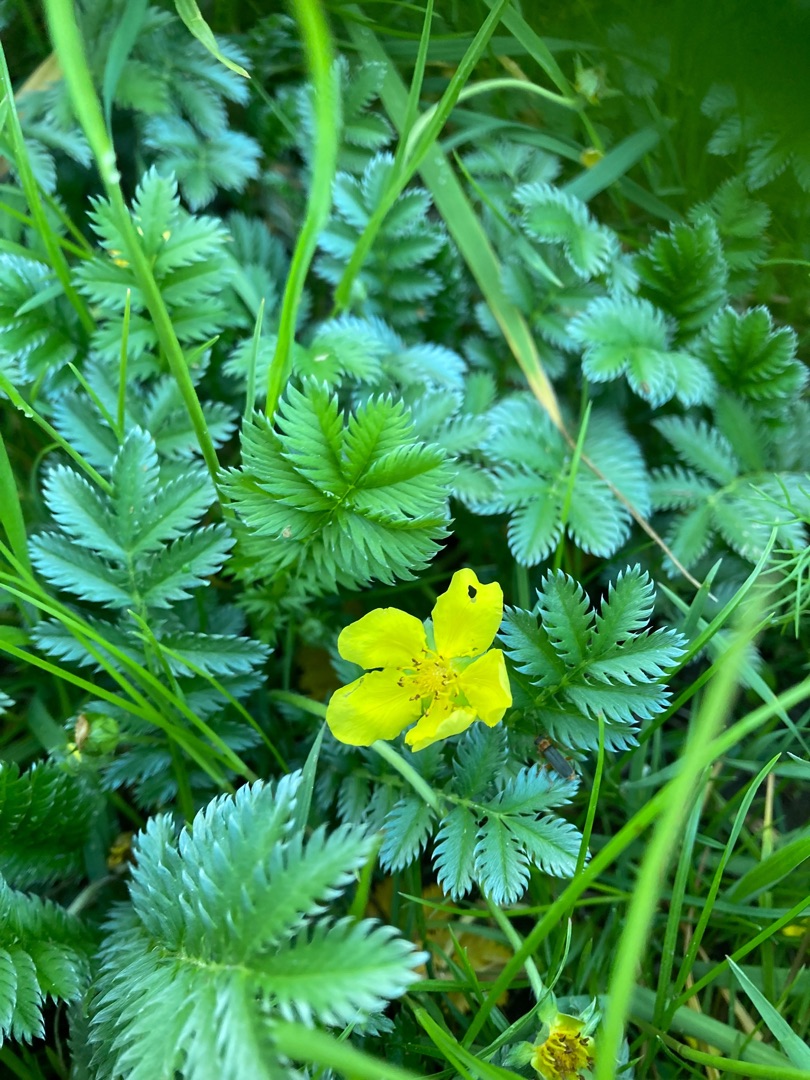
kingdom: Plantae
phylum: Tracheophyta
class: Magnoliopsida
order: Rosales
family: Rosaceae
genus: Argentina
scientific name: Argentina anserina
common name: Gåsepotentil
